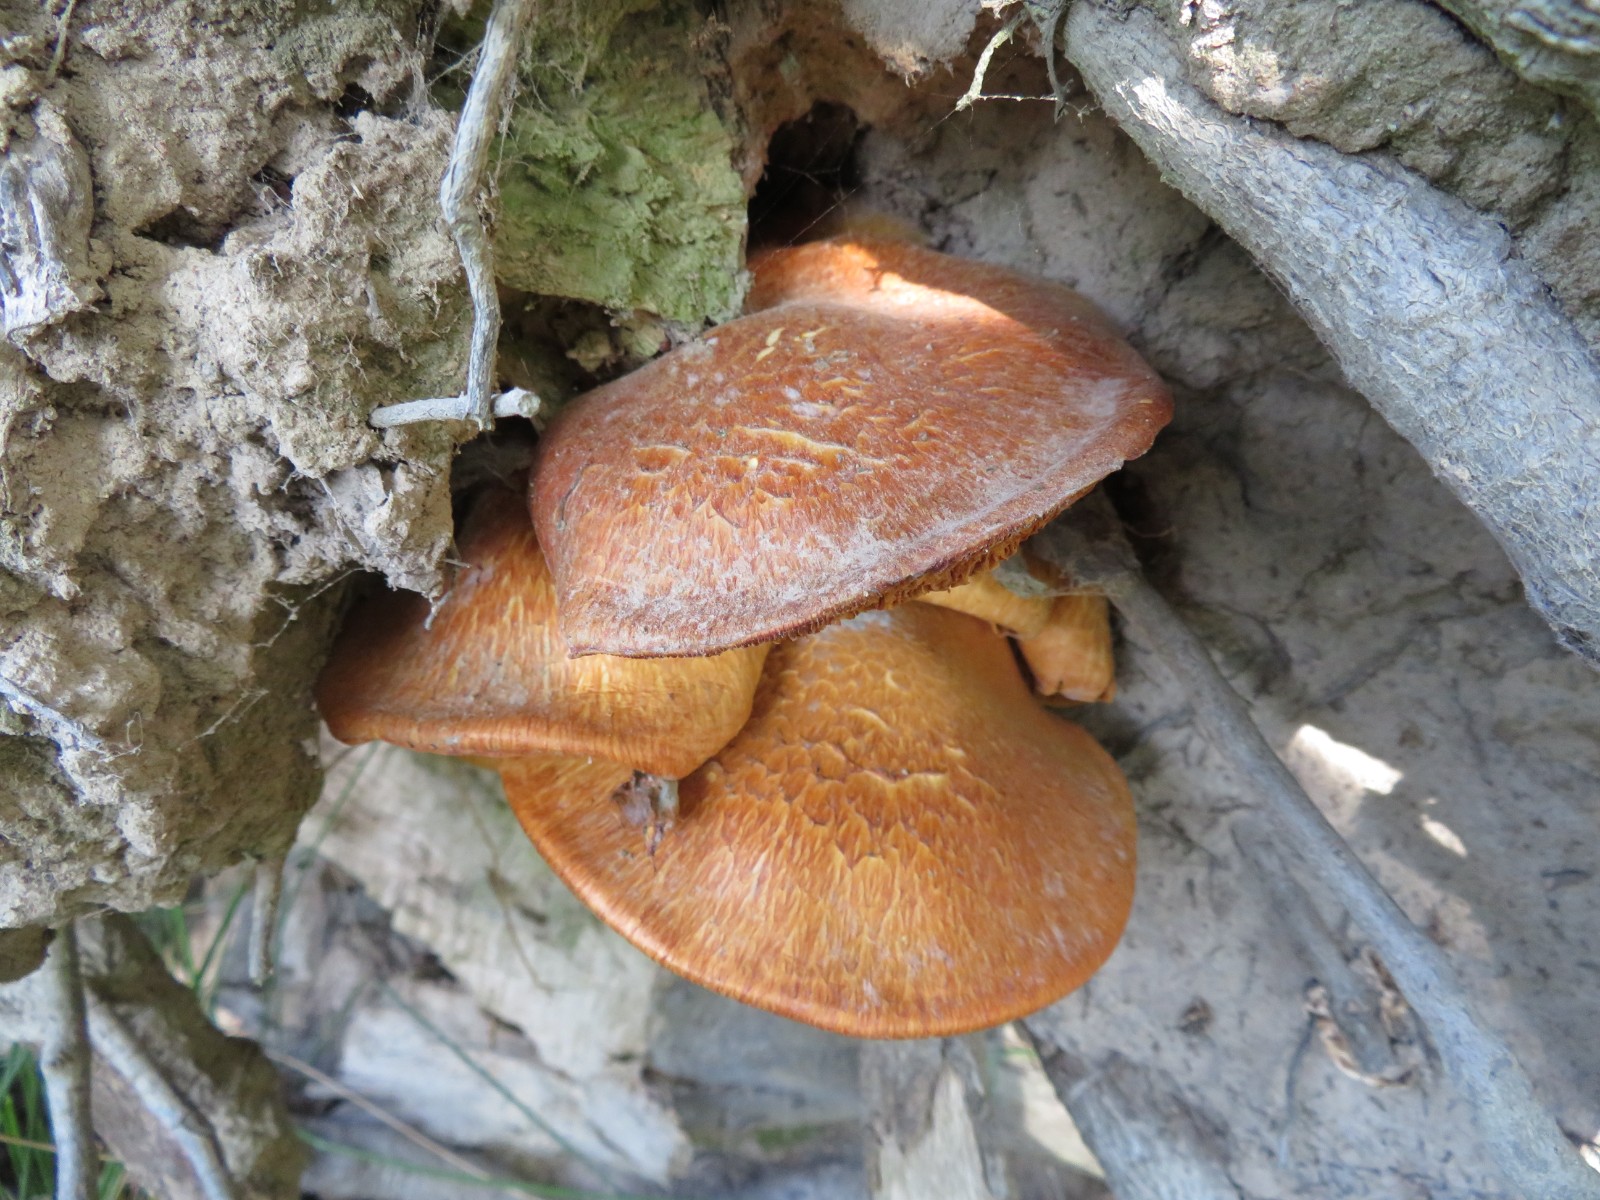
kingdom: Fungi
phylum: Basidiomycota
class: Agaricomycetes
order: Agaricales
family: Hymenogastraceae
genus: Gymnopilus
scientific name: Gymnopilus spectabilis
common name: fibret flammehat
